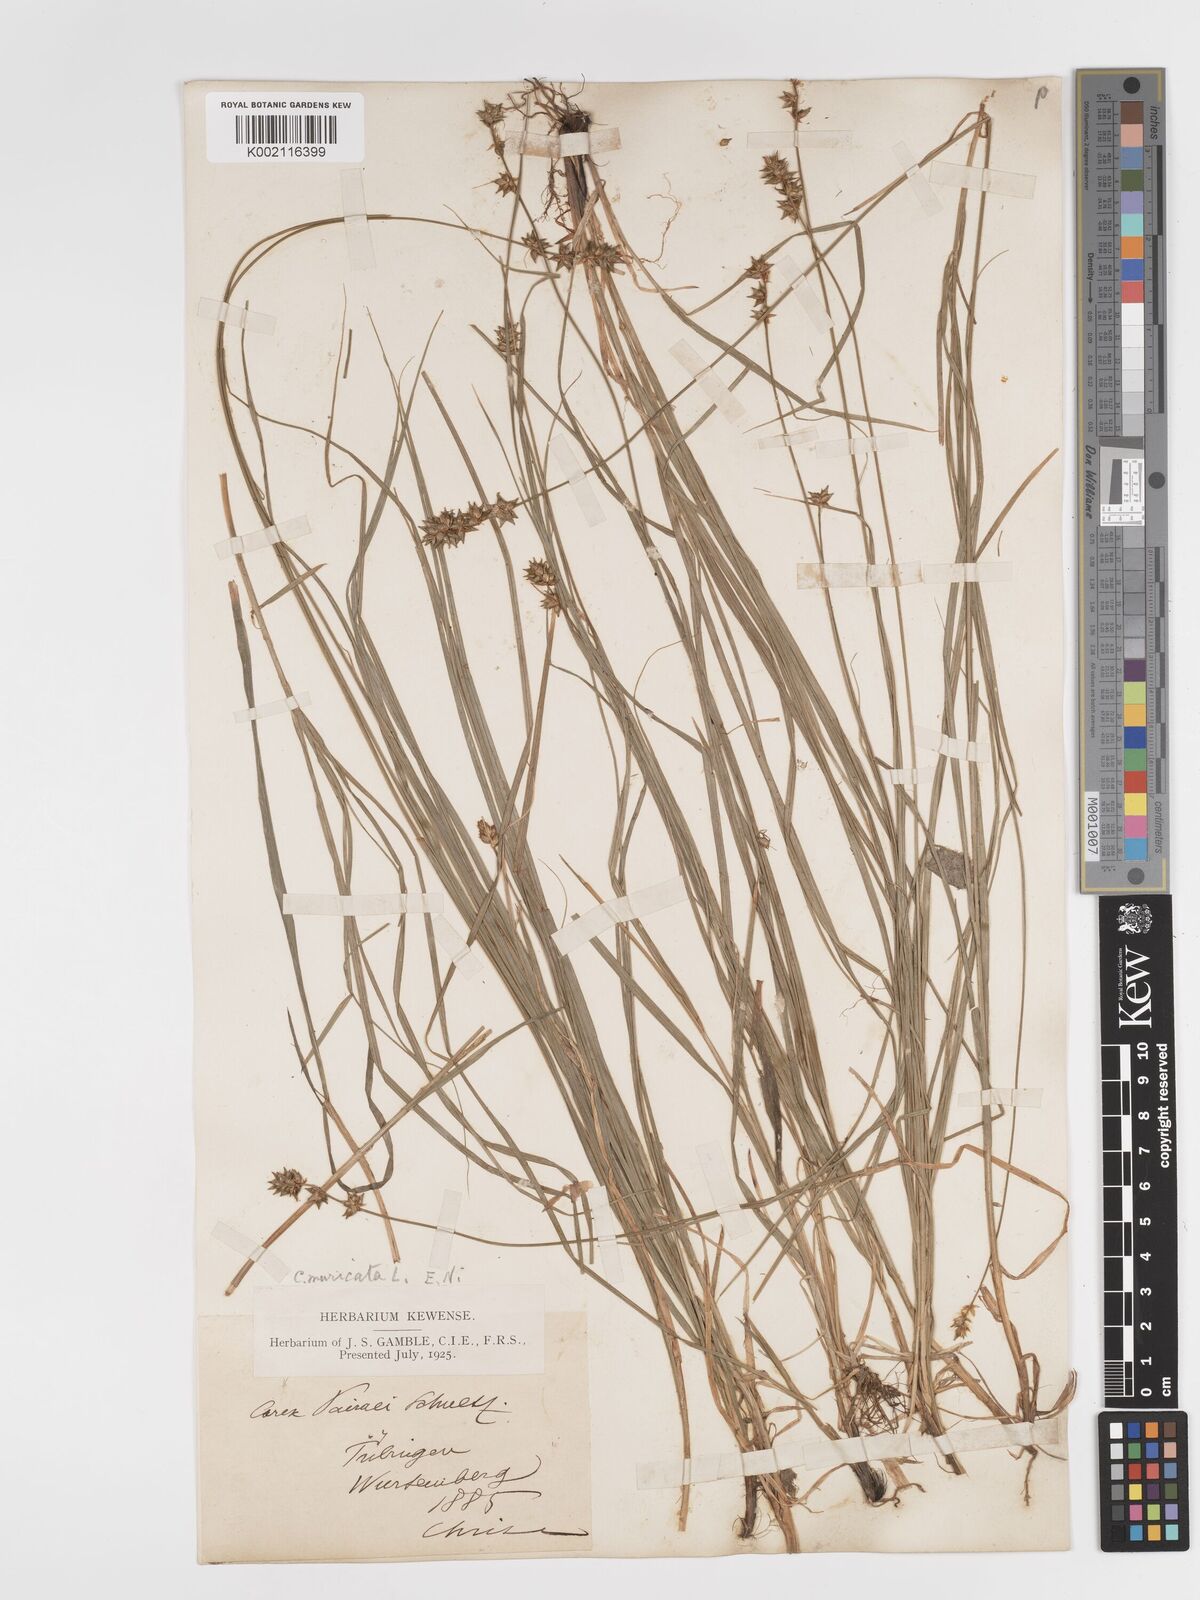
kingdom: Plantae
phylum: Tracheophyta
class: Liliopsida
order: Poales
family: Cyperaceae
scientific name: Cyperaceae
